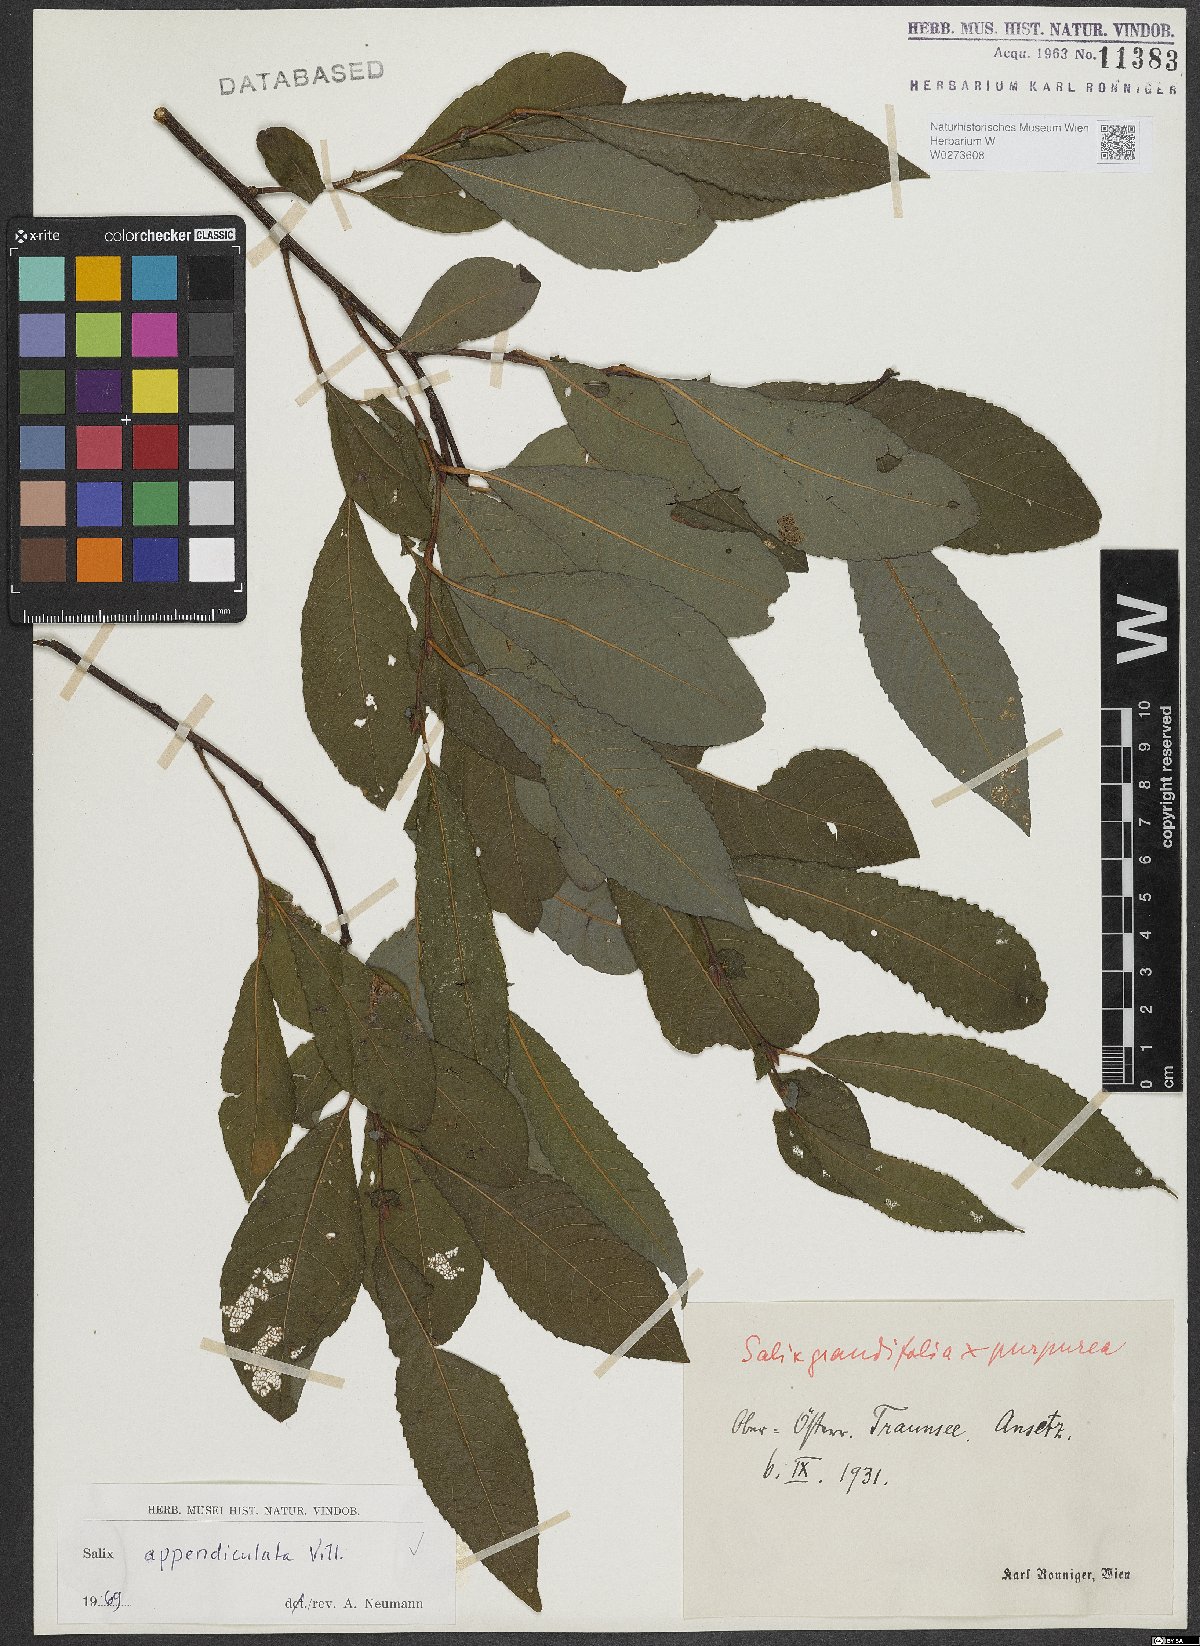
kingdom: Plantae
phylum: Tracheophyta
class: Magnoliopsida
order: Malpighiales
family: Salicaceae
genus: Salix
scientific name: Salix appendiculata
